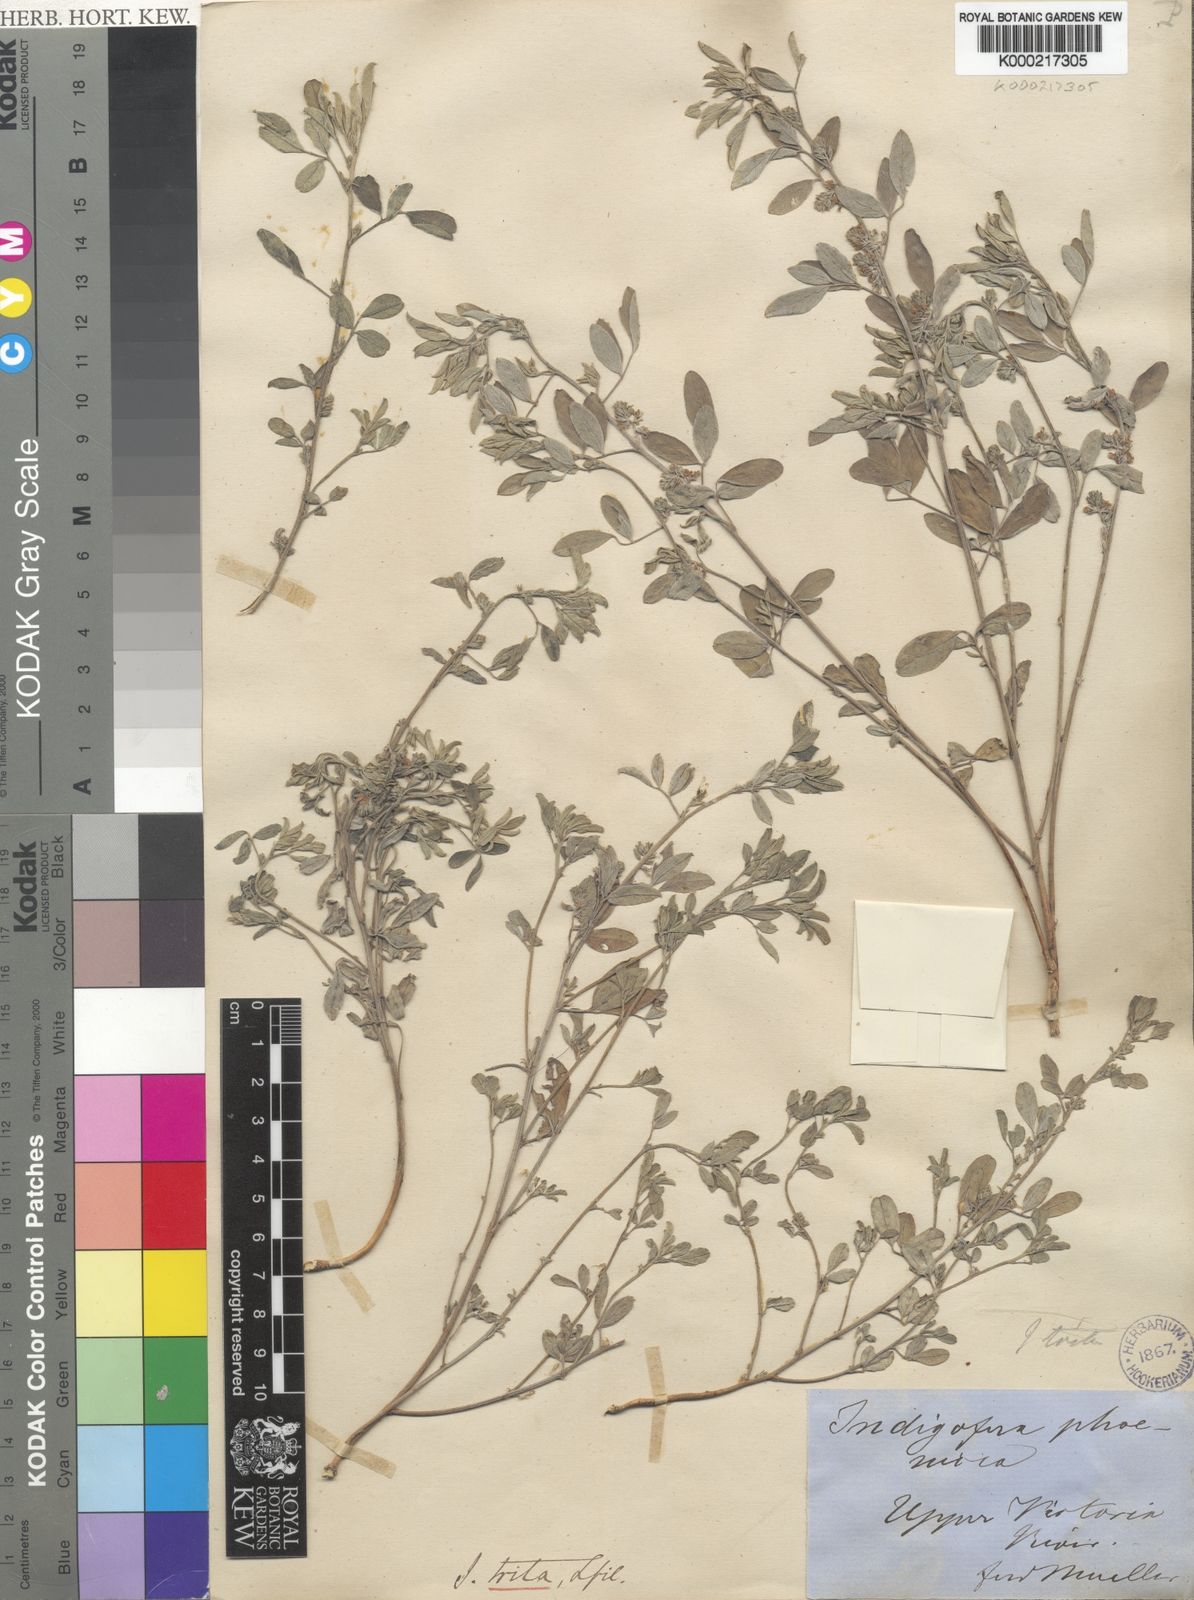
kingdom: Plantae
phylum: Tracheophyta
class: Magnoliopsida
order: Fabales
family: Fabaceae
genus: Indigofera
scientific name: Indigofera trita
